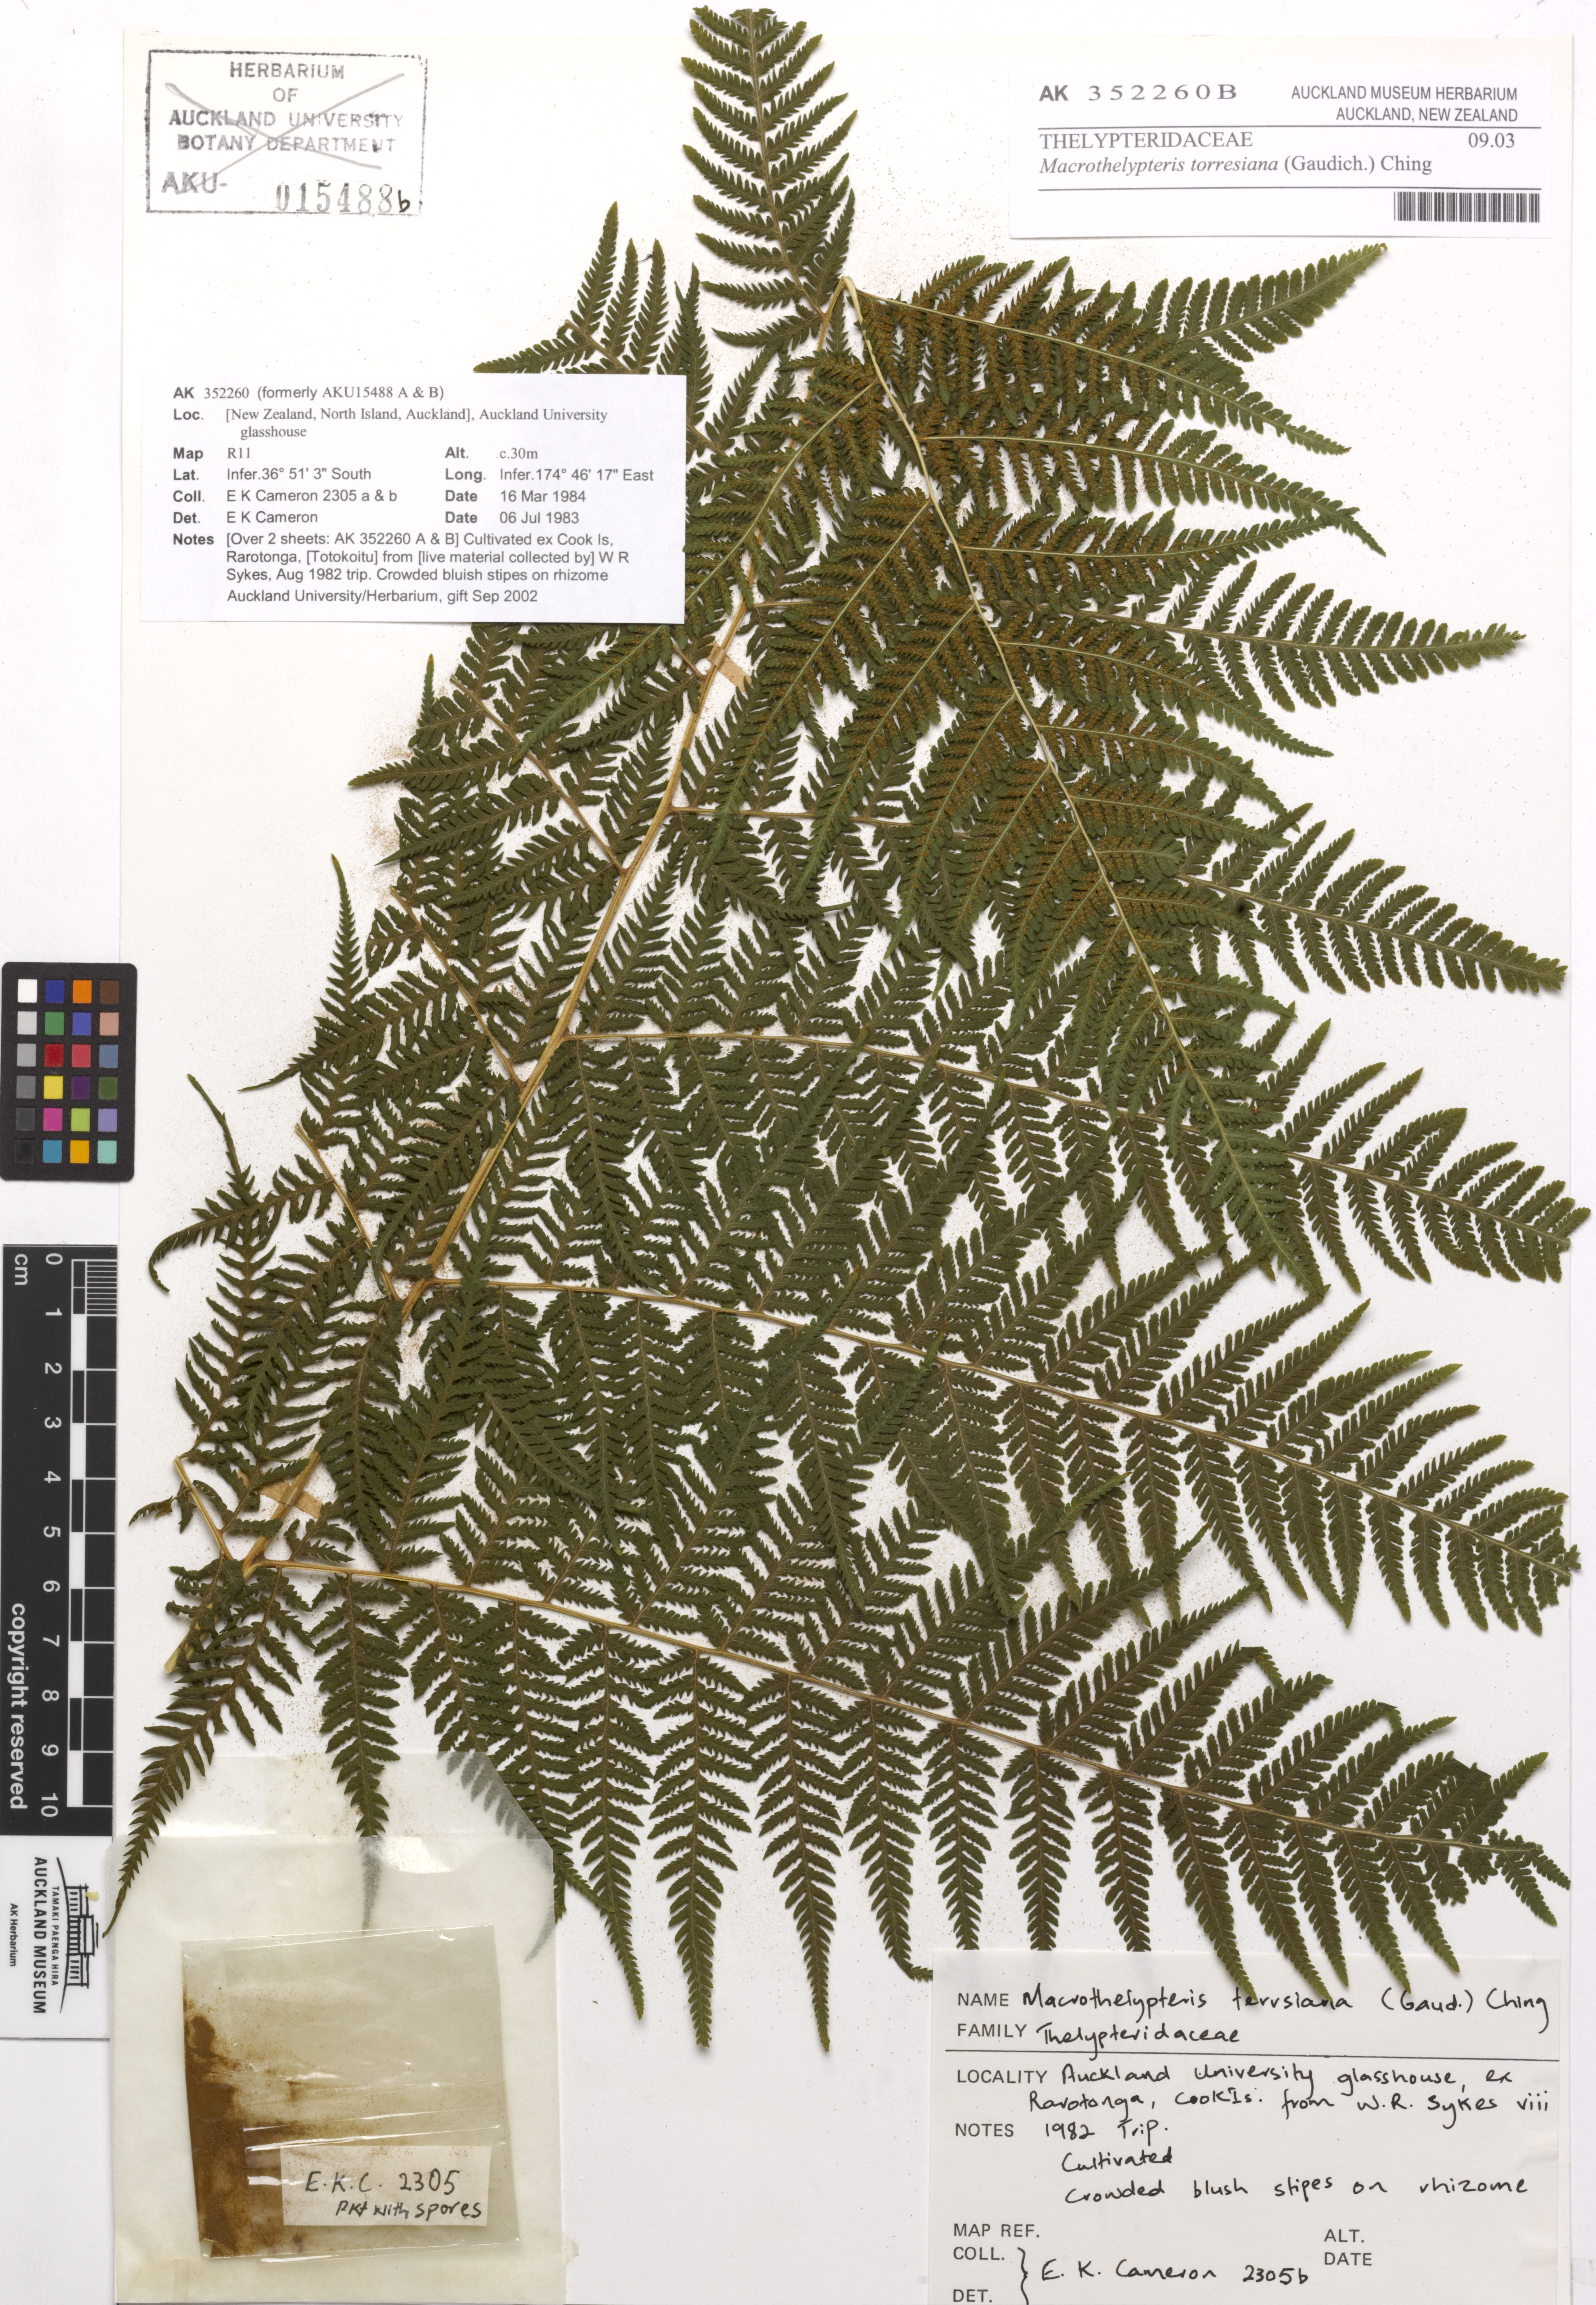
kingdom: Plantae
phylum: Tracheophyta
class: Polypodiopsida
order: Polypodiales
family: Thelypteridaceae
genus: Macrothelypteris
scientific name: Macrothelypteris torresiana
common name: Swordfern
